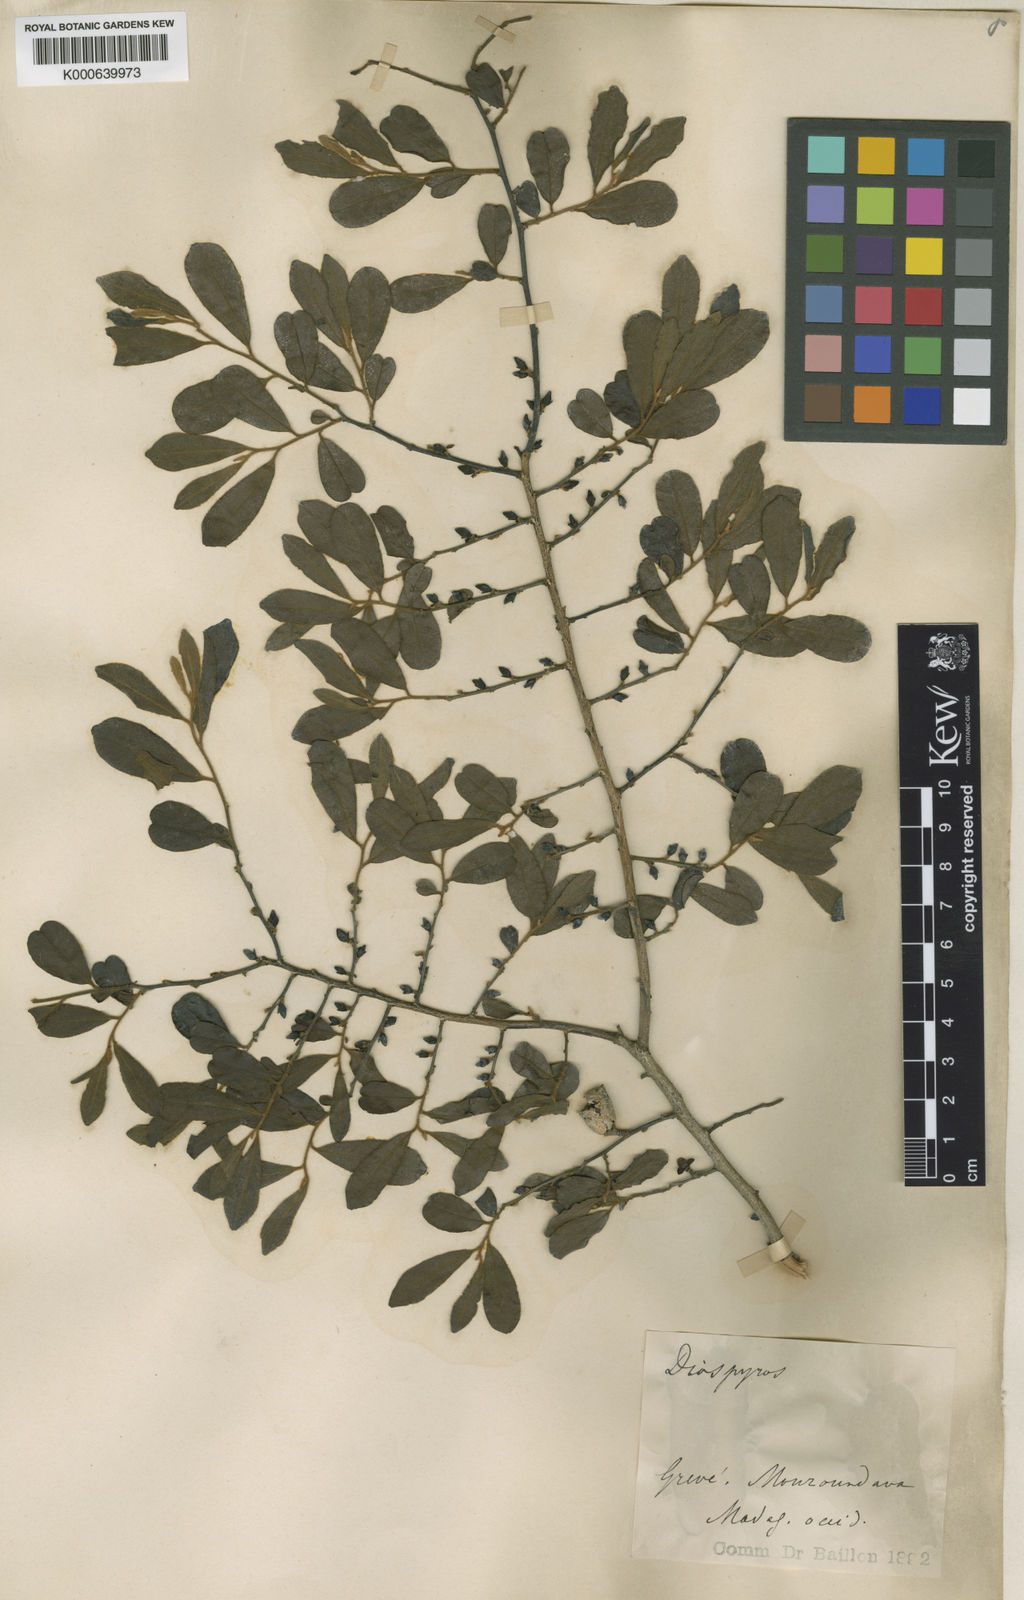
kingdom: Plantae
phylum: Tracheophyta
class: Magnoliopsida
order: Ericales
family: Ebenaceae
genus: Diospyros
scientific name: Diospyros tropophylla
